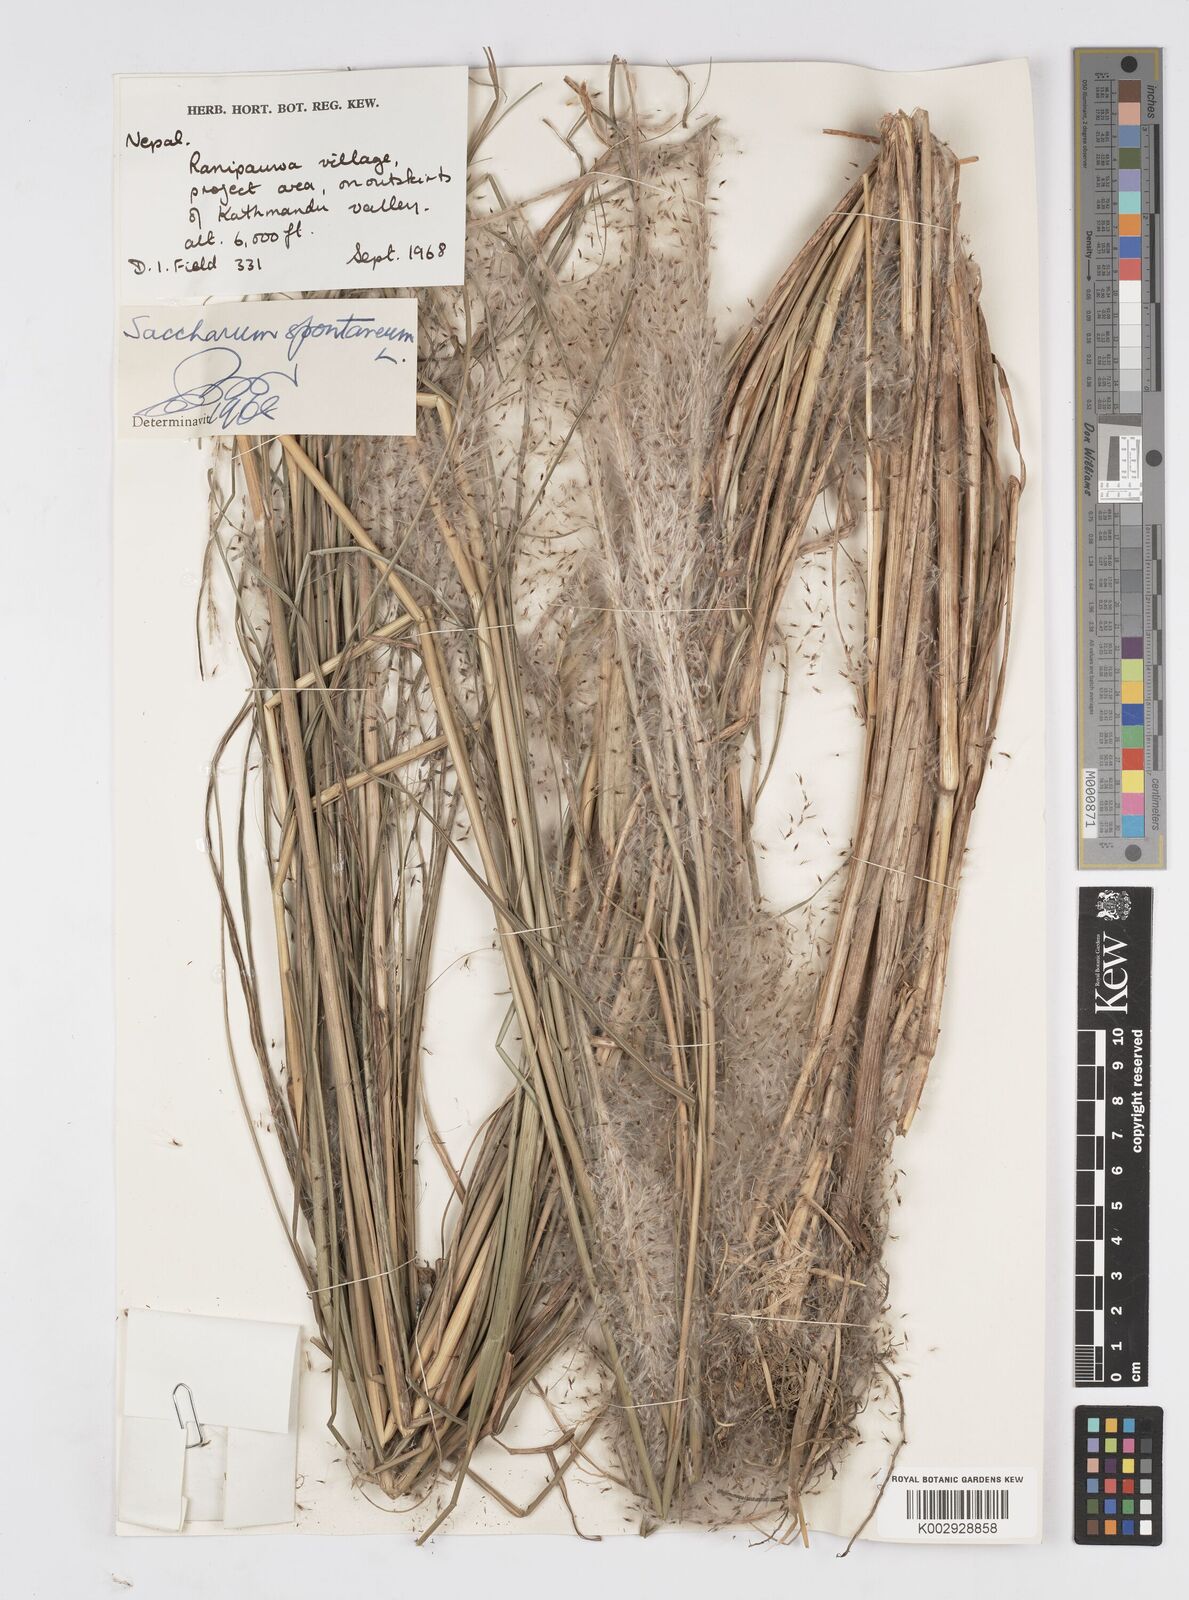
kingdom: Plantae
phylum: Tracheophyta
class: Liliopsida
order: Poales
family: Poaceae
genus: Saccharum
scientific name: Saccharum spontaneum
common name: Wild sugarcane
